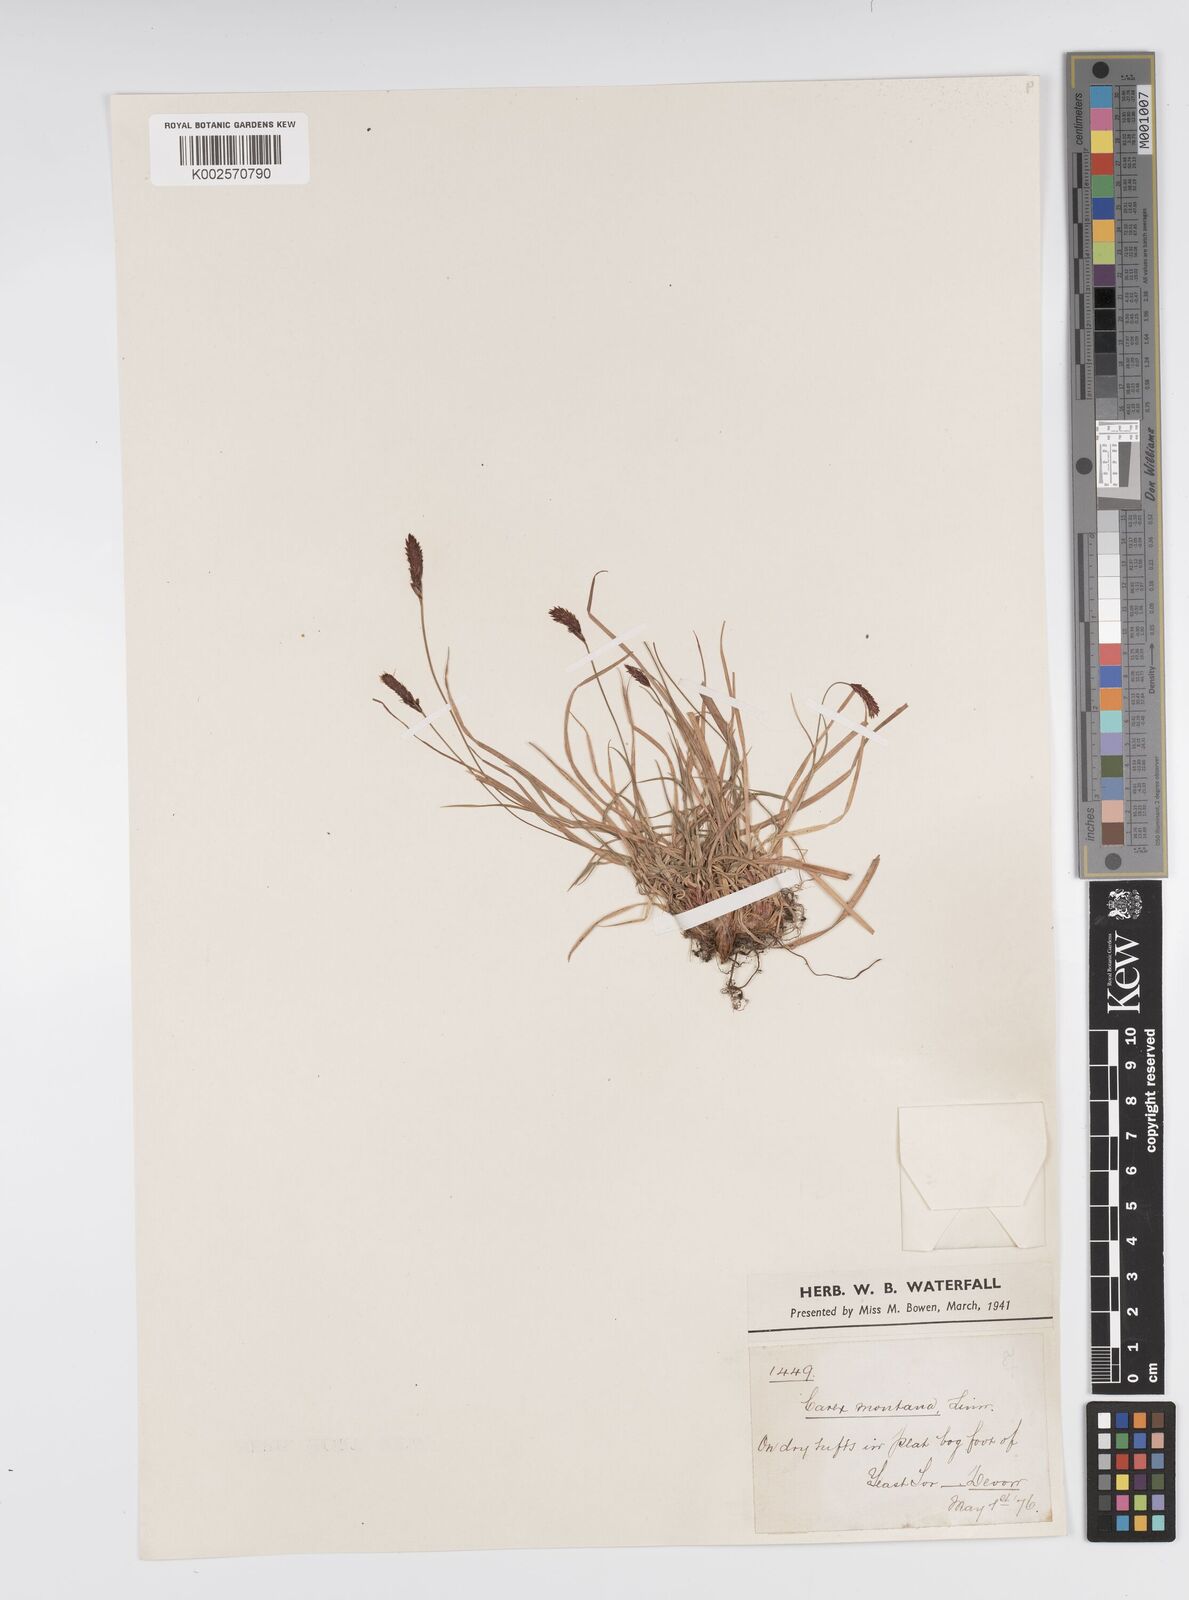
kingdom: Plantae
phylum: Tracheophyta
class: Liliopsida
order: Poales
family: Cyperaceae
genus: Carex
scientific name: Carex montana
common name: Soft-leaved sedge
